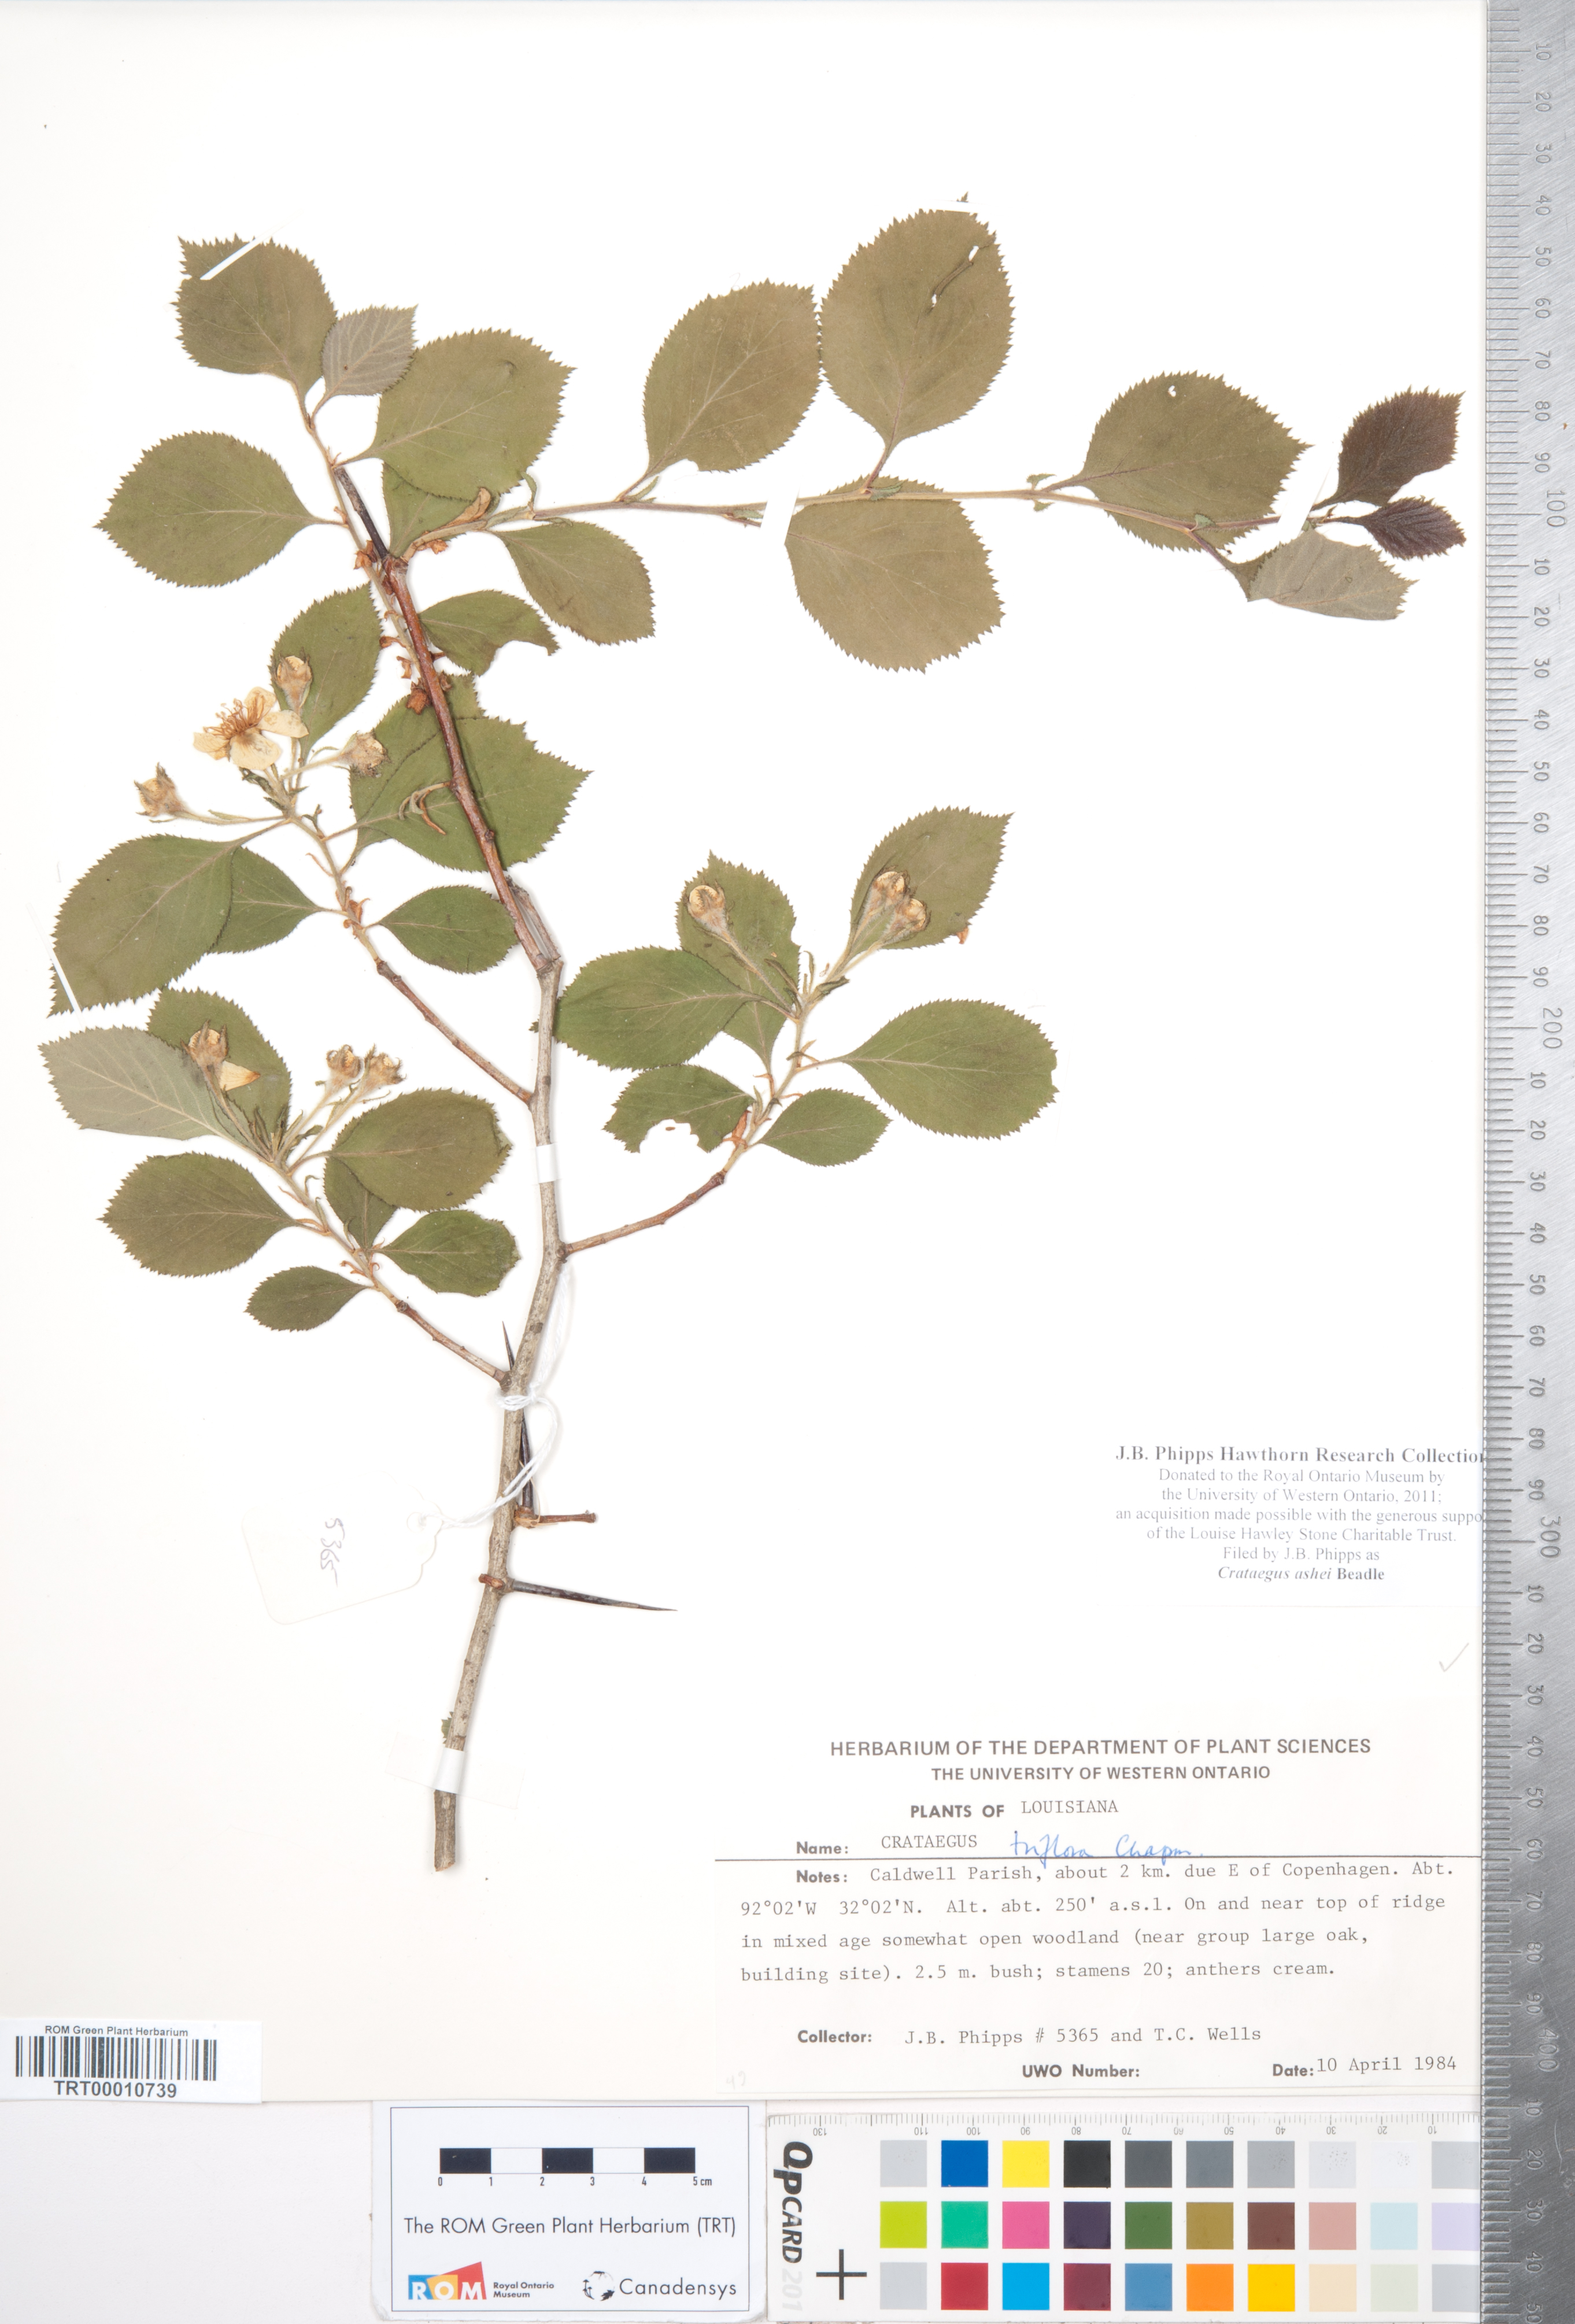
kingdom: Plantae
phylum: Tracheophyta
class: Magnoliopsida
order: Rosales
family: Rosaceae
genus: Crataegus
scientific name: Crataegus ashei
